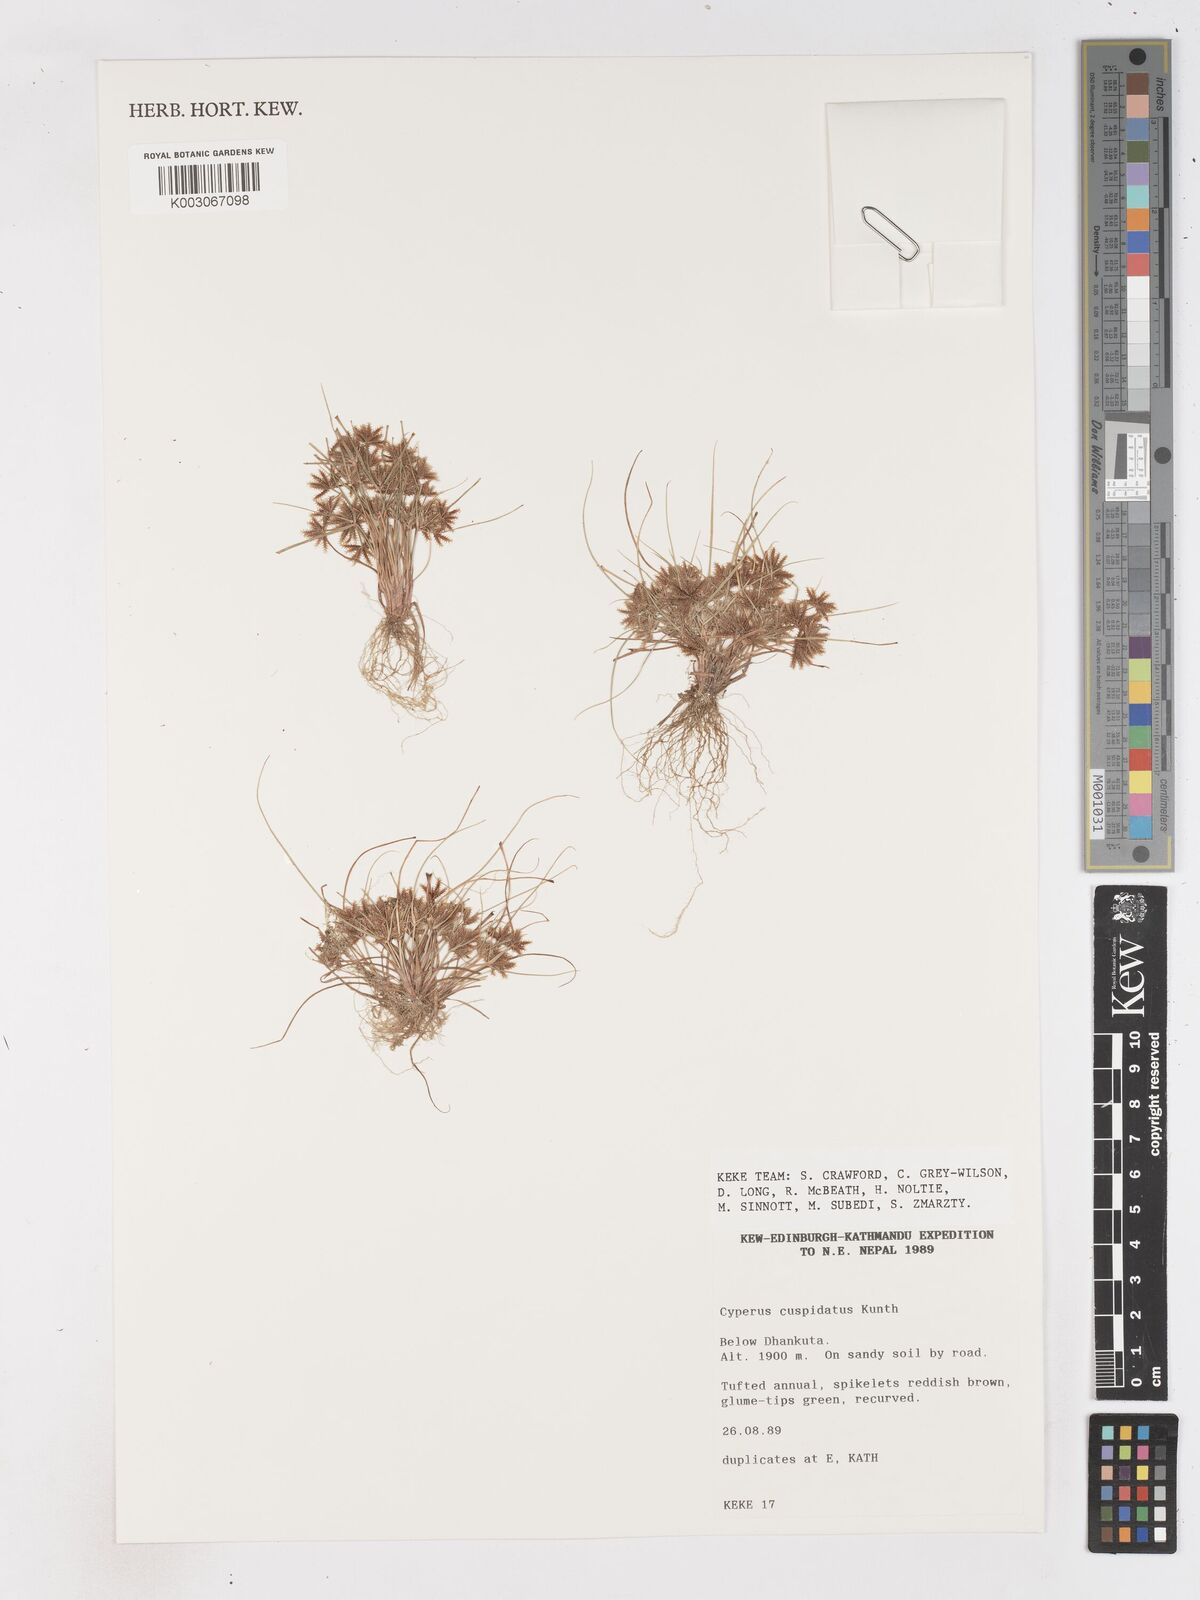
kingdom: Plantae
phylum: Tracheophyta
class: Liliopsida
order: Poales
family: Cyperaceae
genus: Cyperus
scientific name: Cyperus cuspidatus
